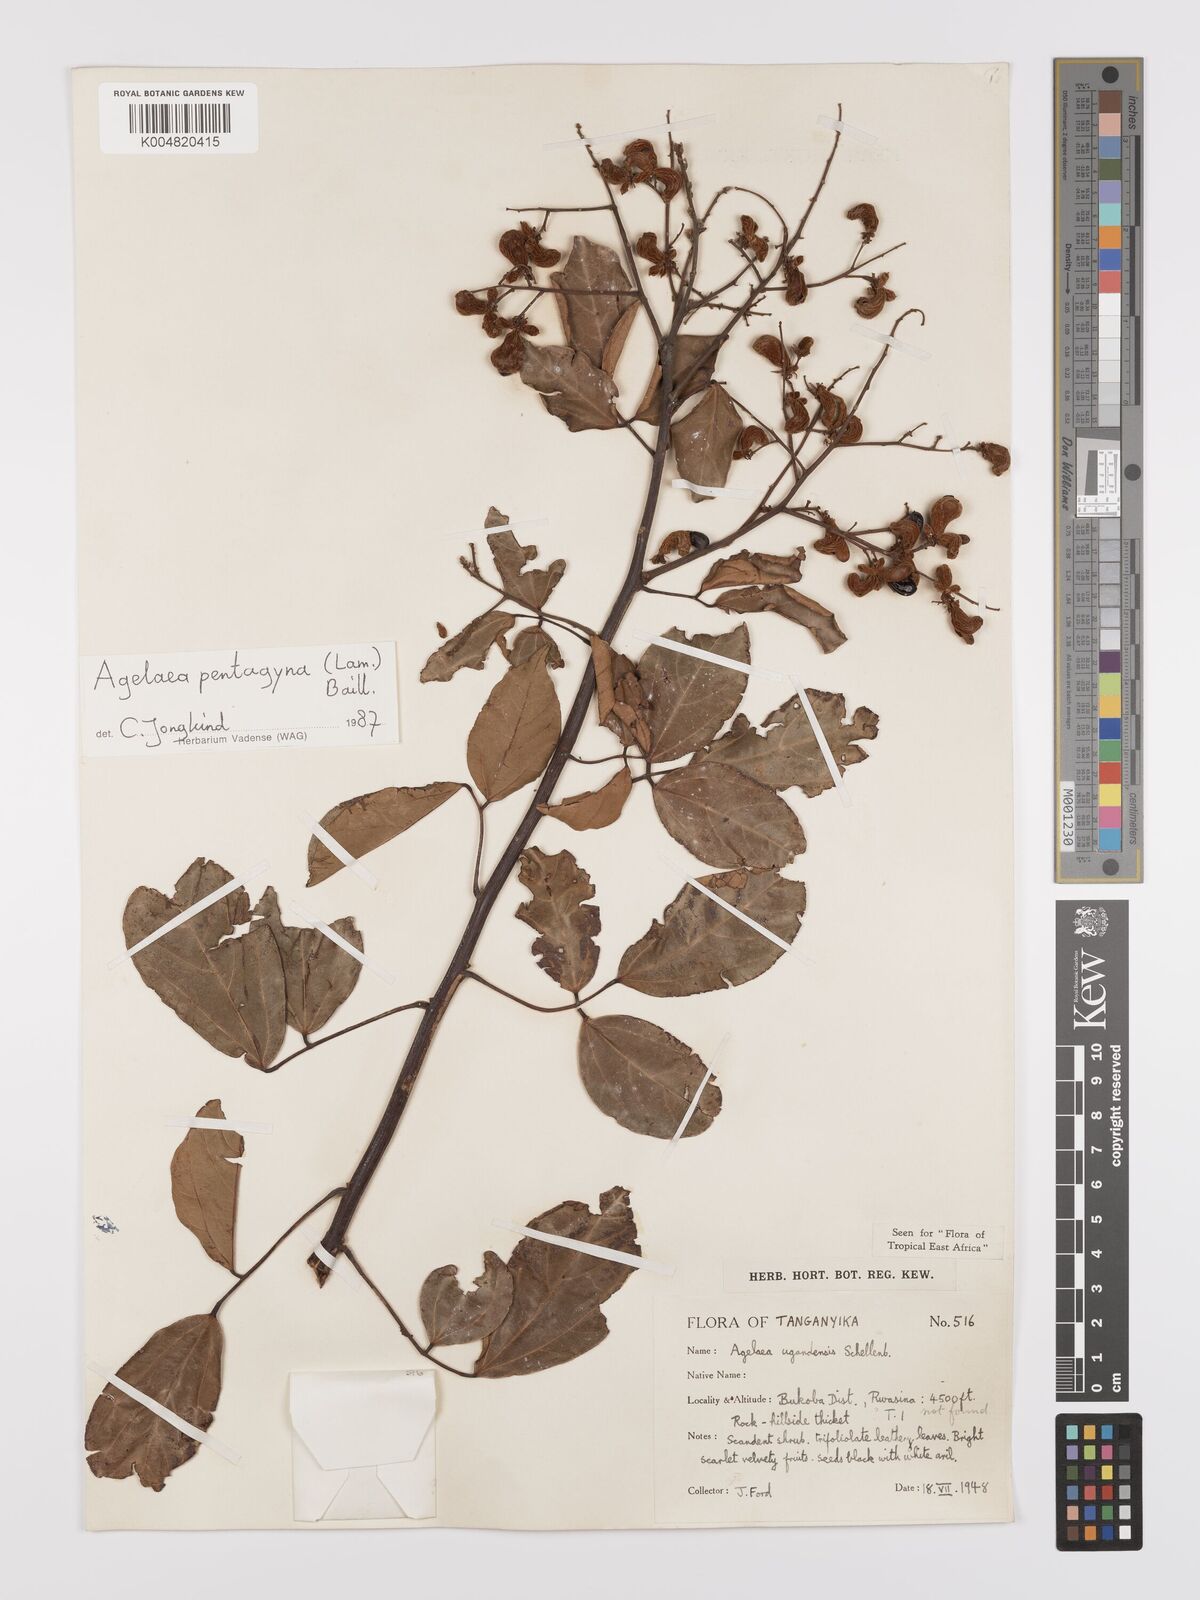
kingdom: Plantae
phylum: Tracheophyta
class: Magnoliopsida
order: Oxalidales
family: Connaraceae
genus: Agelaea
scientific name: Agelaea pentagyna
